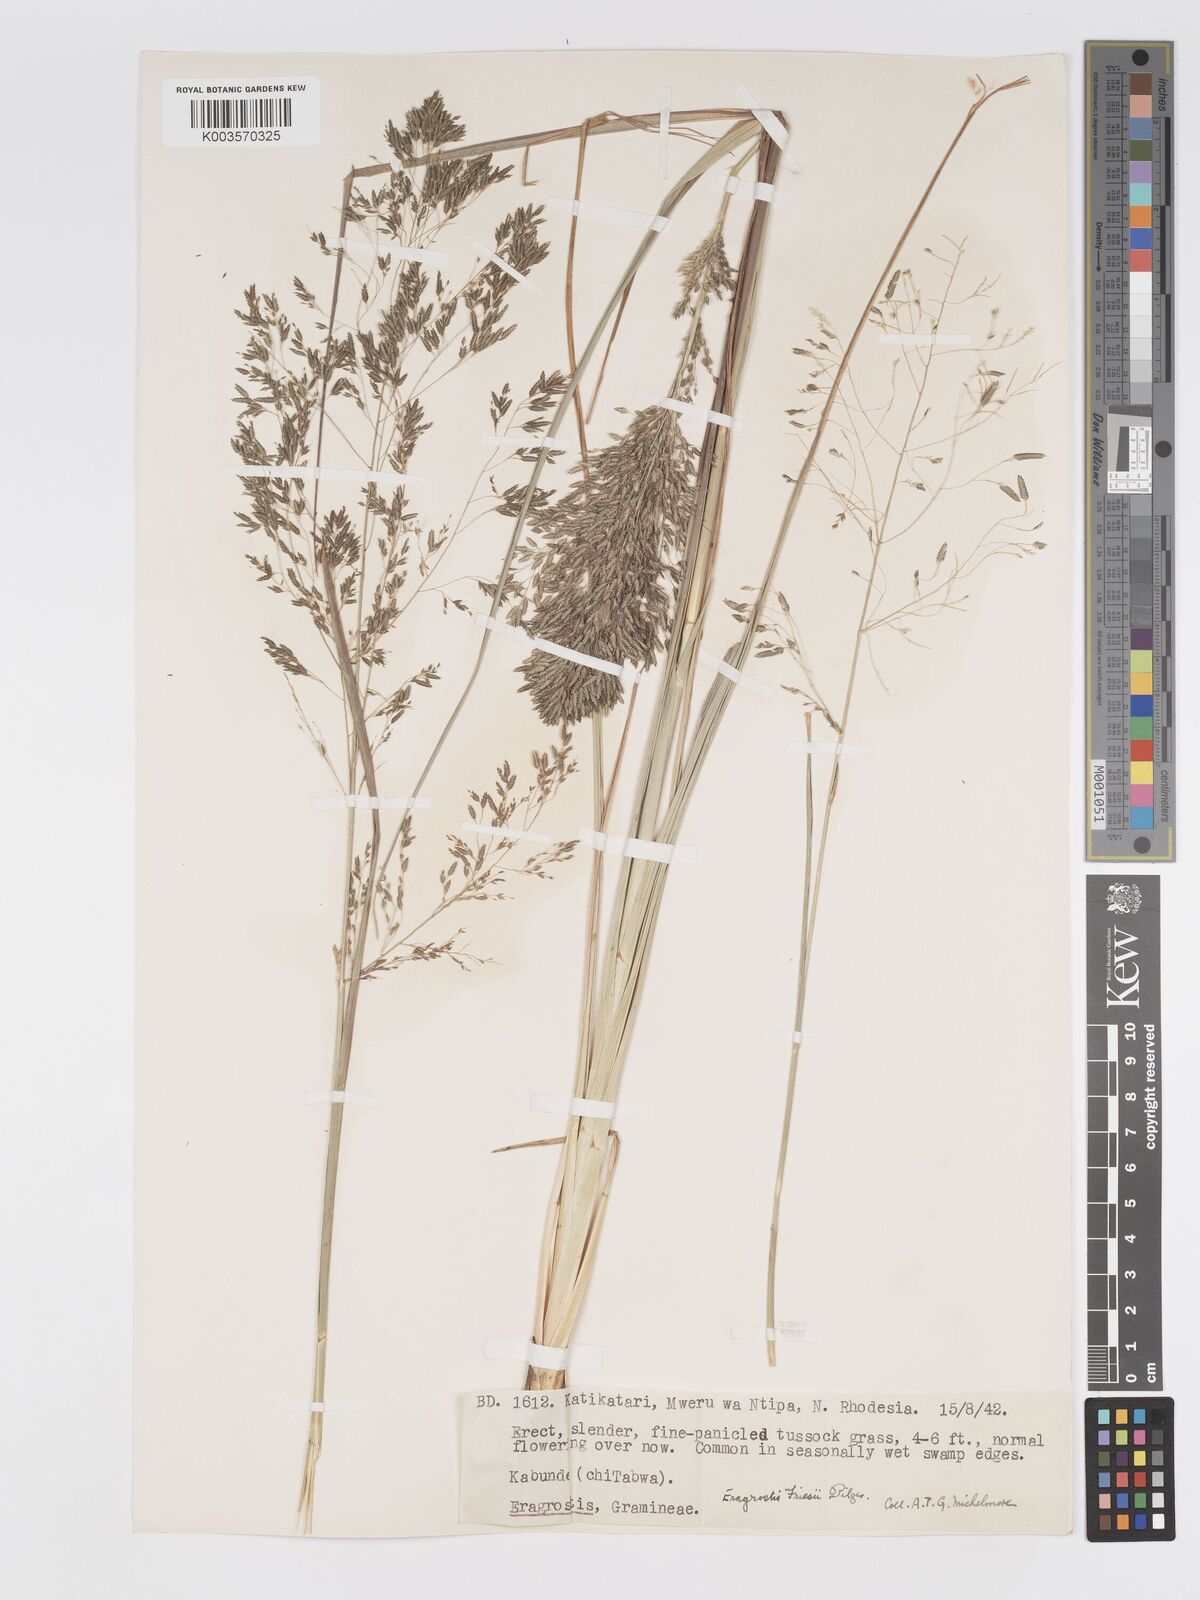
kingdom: Plantae
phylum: Tracheophyta
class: Liliopsida
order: Poales
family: Poaceae
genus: Eragrostis
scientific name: Eragrostis friesii
